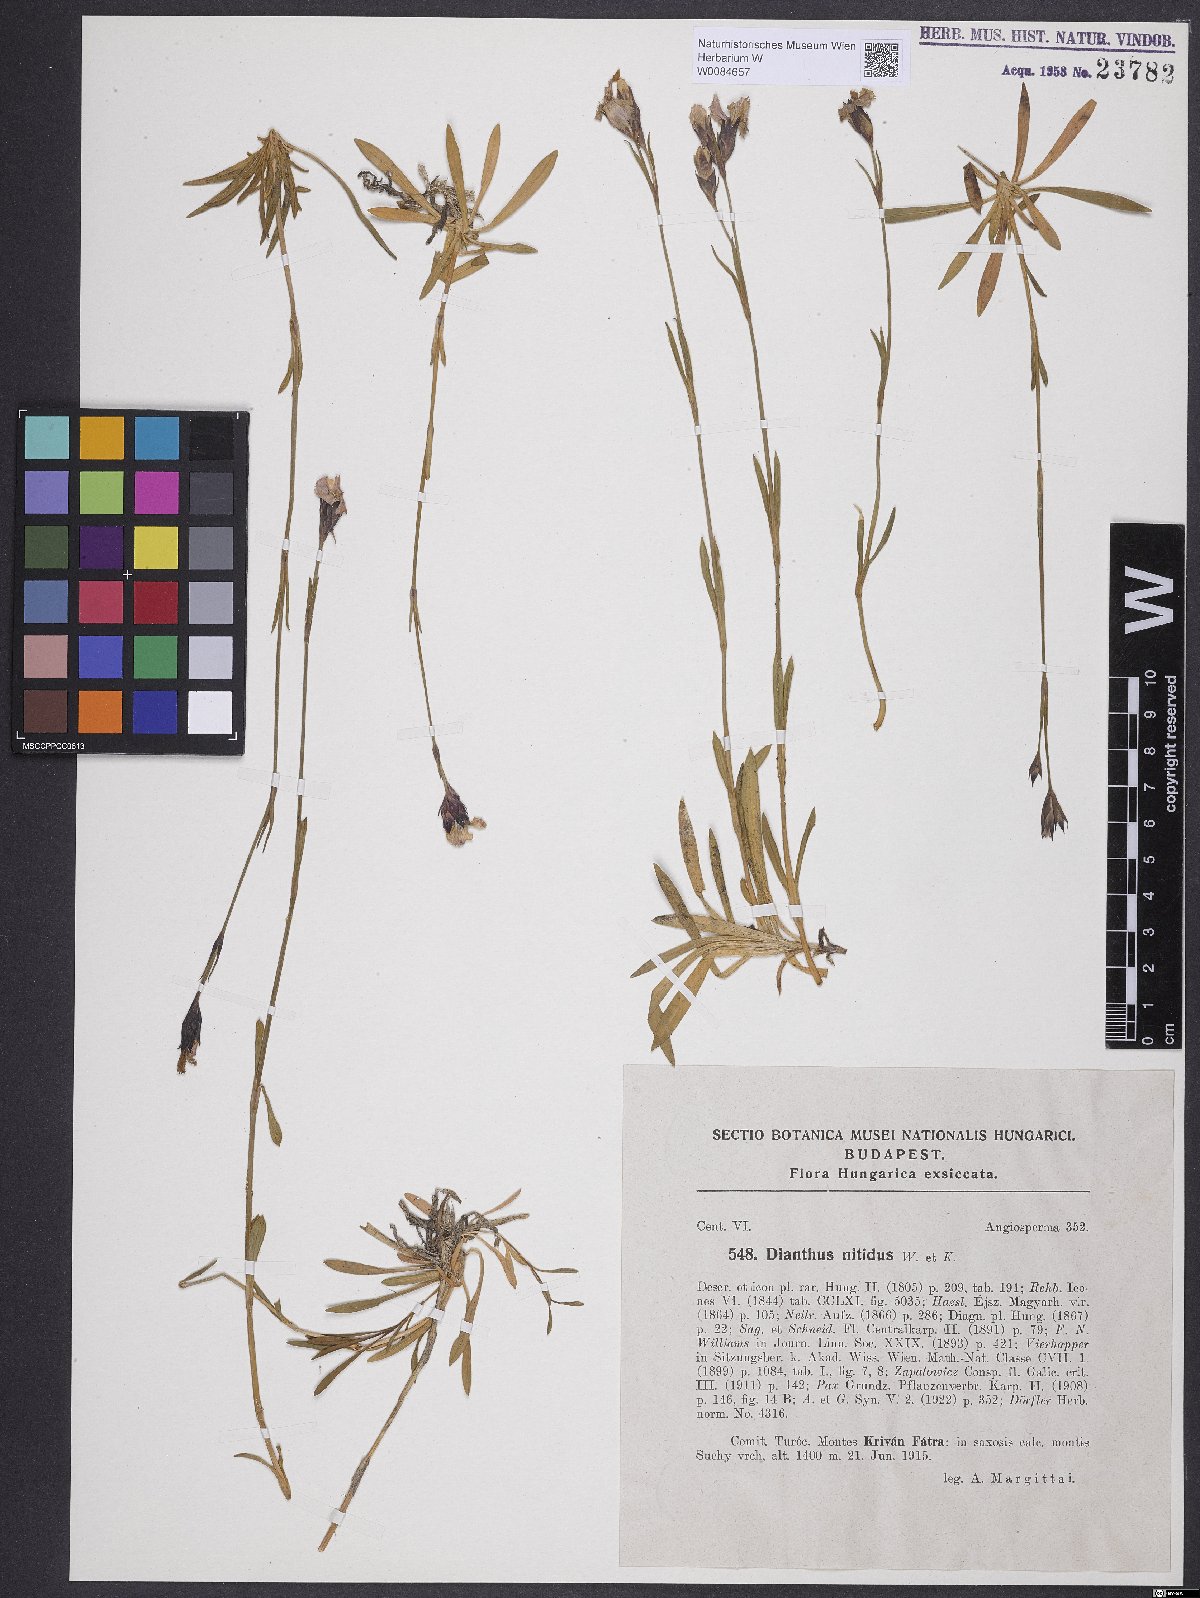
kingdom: Plantae
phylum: Tracheophyta
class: Magnoliopsida
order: Caryophyllales
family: Caryophyllaceae
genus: Dianthus
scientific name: Dianthus nitidus
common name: Carpathian glossy pink
